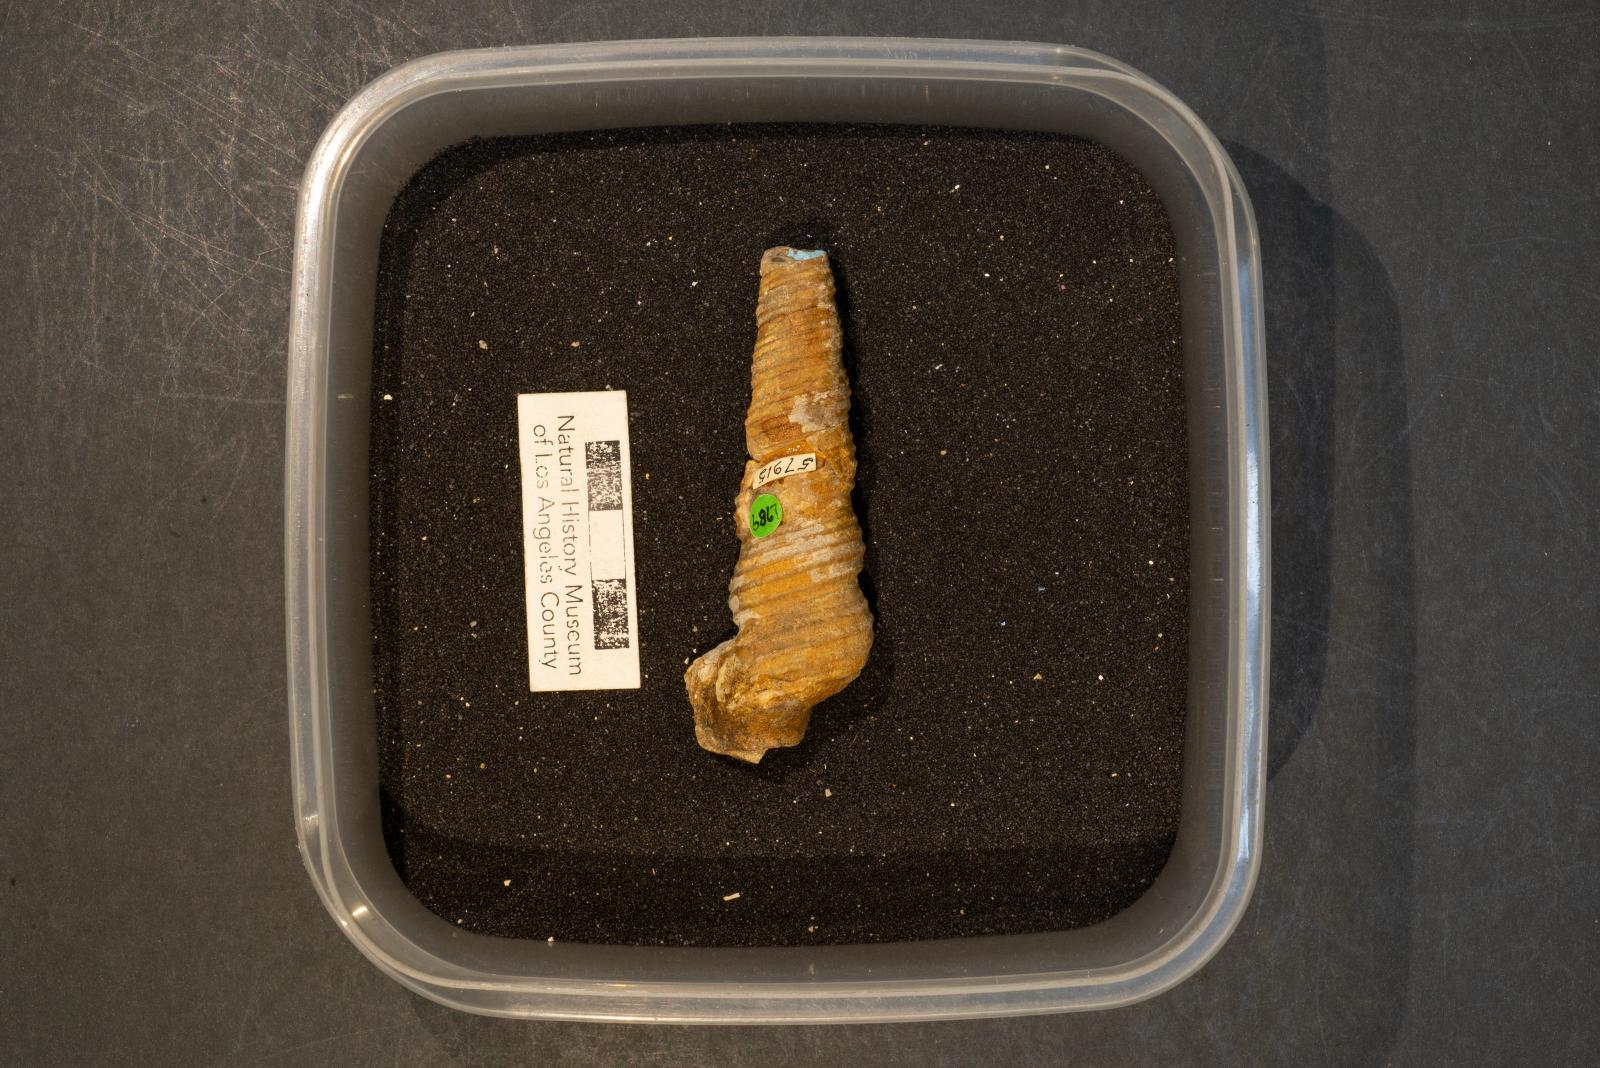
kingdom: Animalia
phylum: Mollusca
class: Gastropoda
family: Turritellidae
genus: Turritella
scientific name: Turritella chicoensis
